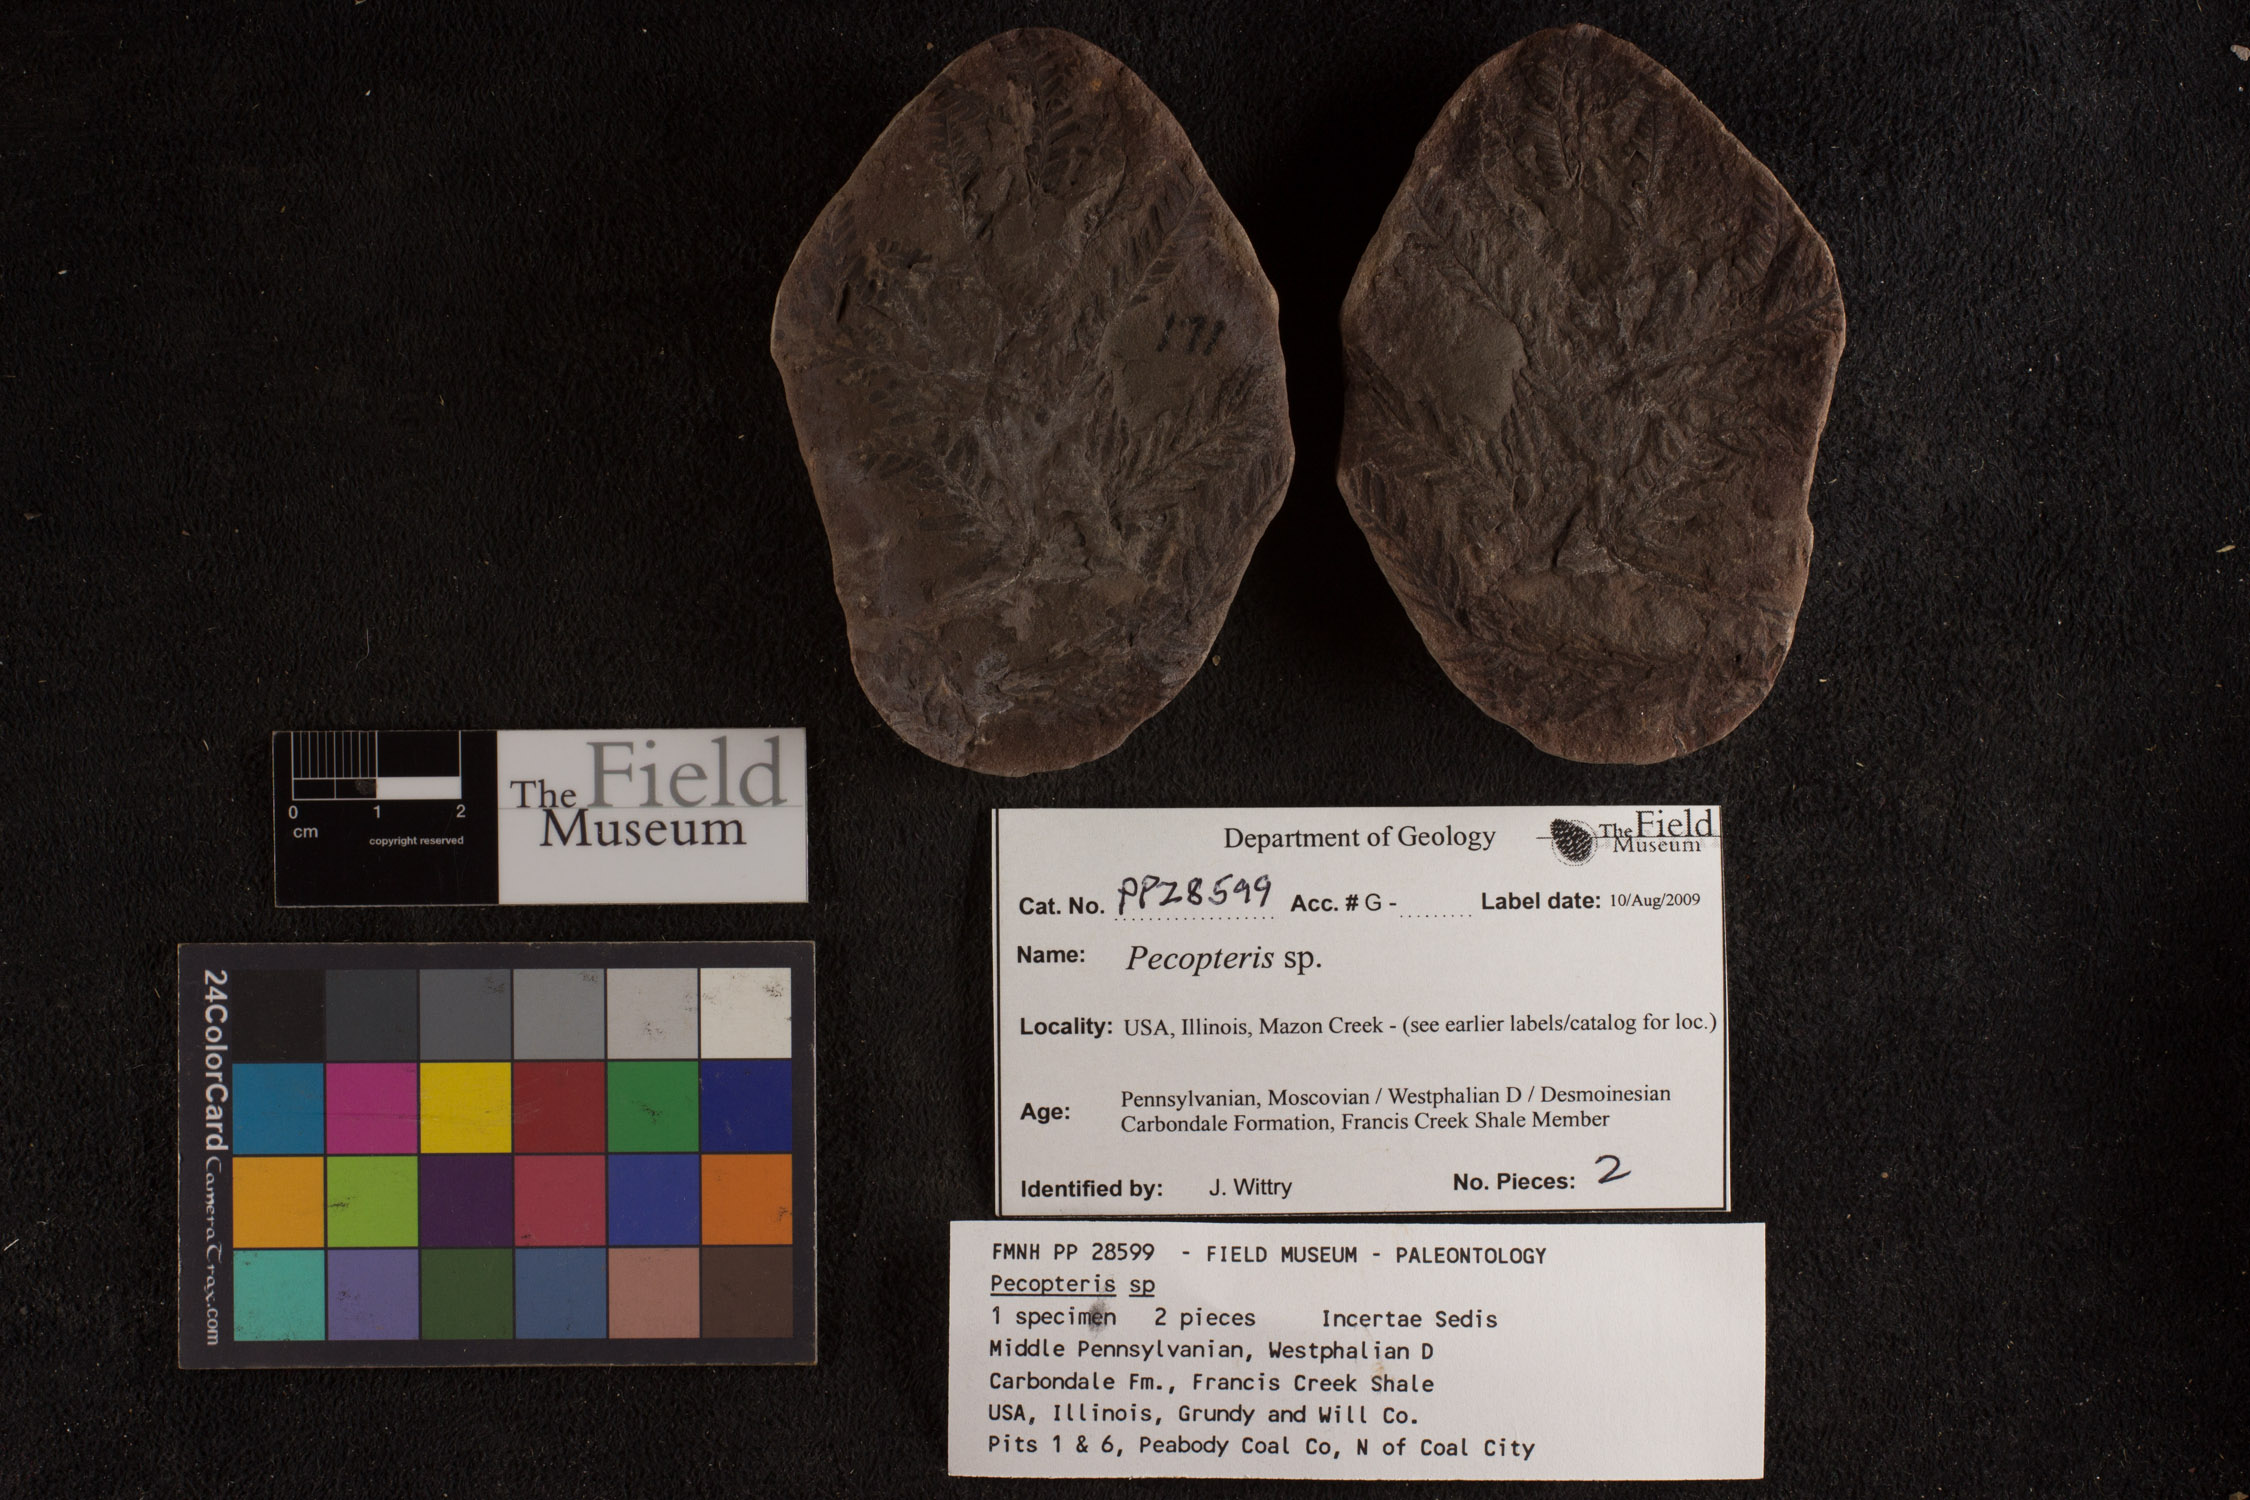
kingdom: Plantae
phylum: Tracheophyta
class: Polypodiopsida
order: Marattiales
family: Asterothecaceae
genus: Pecopteris
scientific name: Pecopteris
